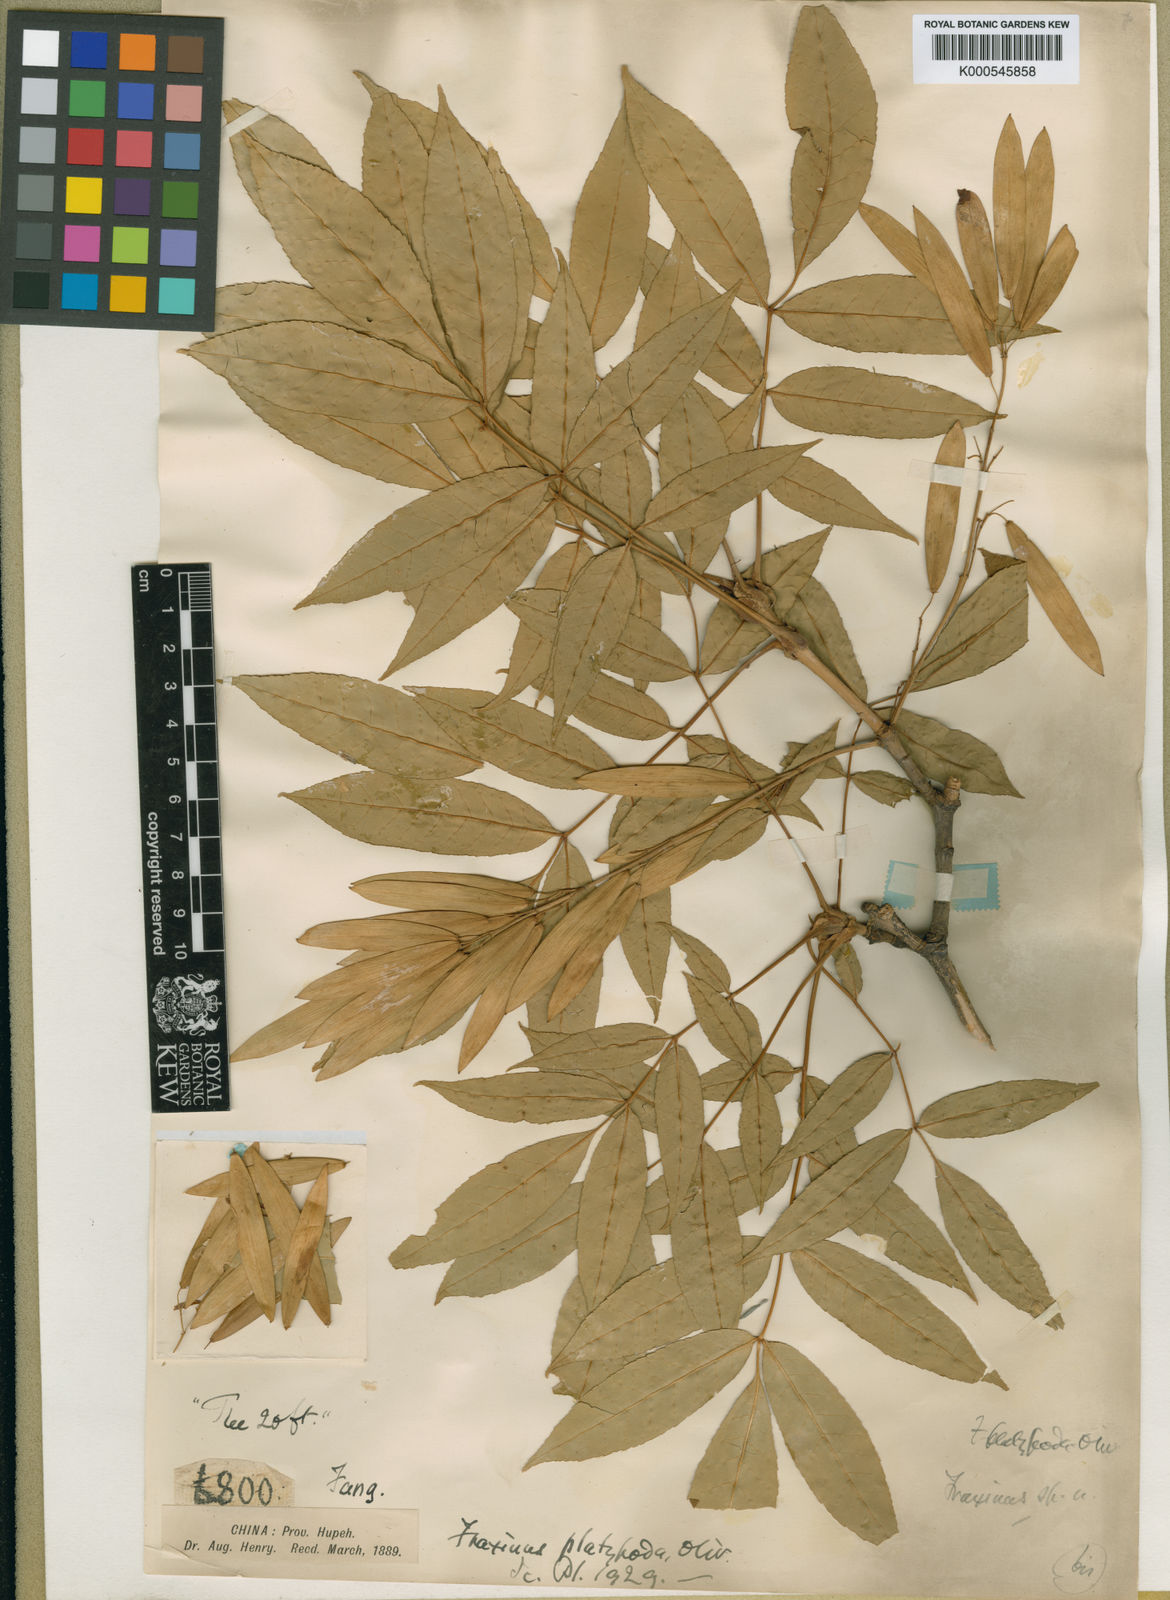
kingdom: Plantae
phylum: Tracheophyta
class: Magnoliopsida
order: Lamiales
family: Oleaceae
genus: Fraxinus
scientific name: Fraxinus platypoda
